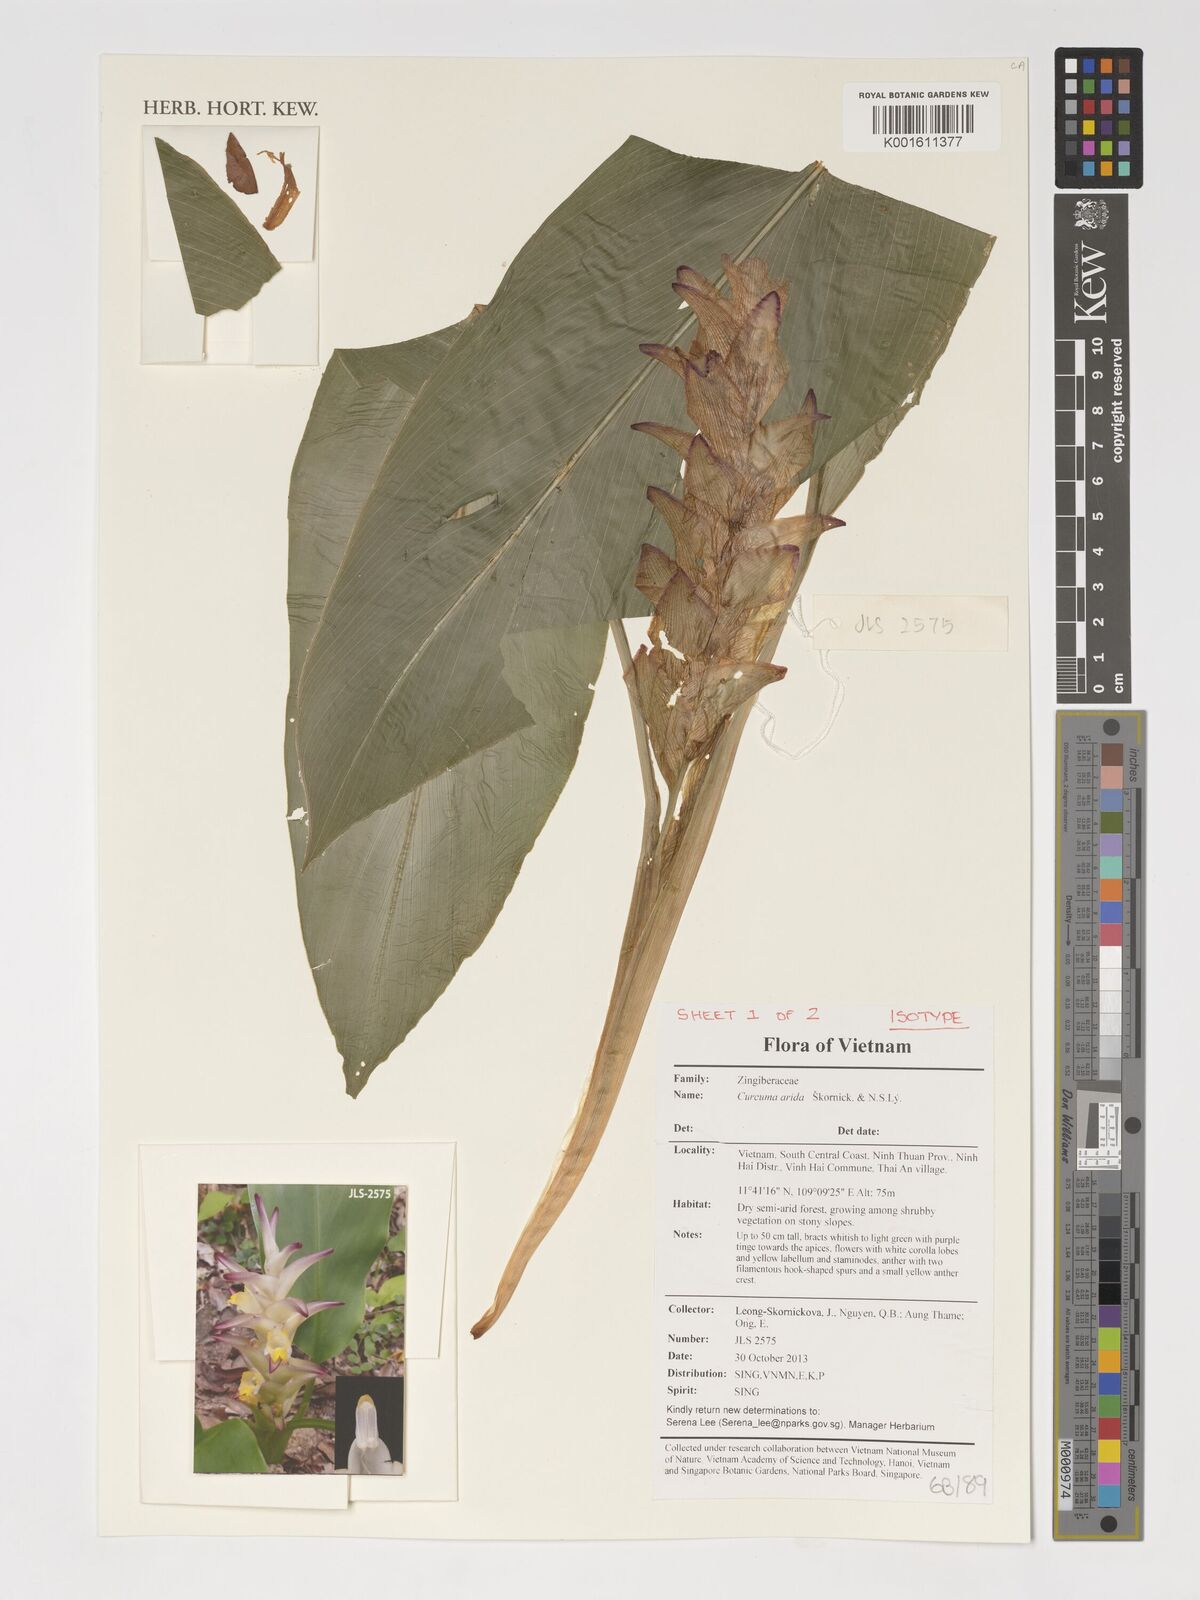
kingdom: Plantae
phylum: Tracheophyta
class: Liliopsida
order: Zingiberales
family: Zingiberaceae
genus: Curcuma
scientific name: Curcuma arida
